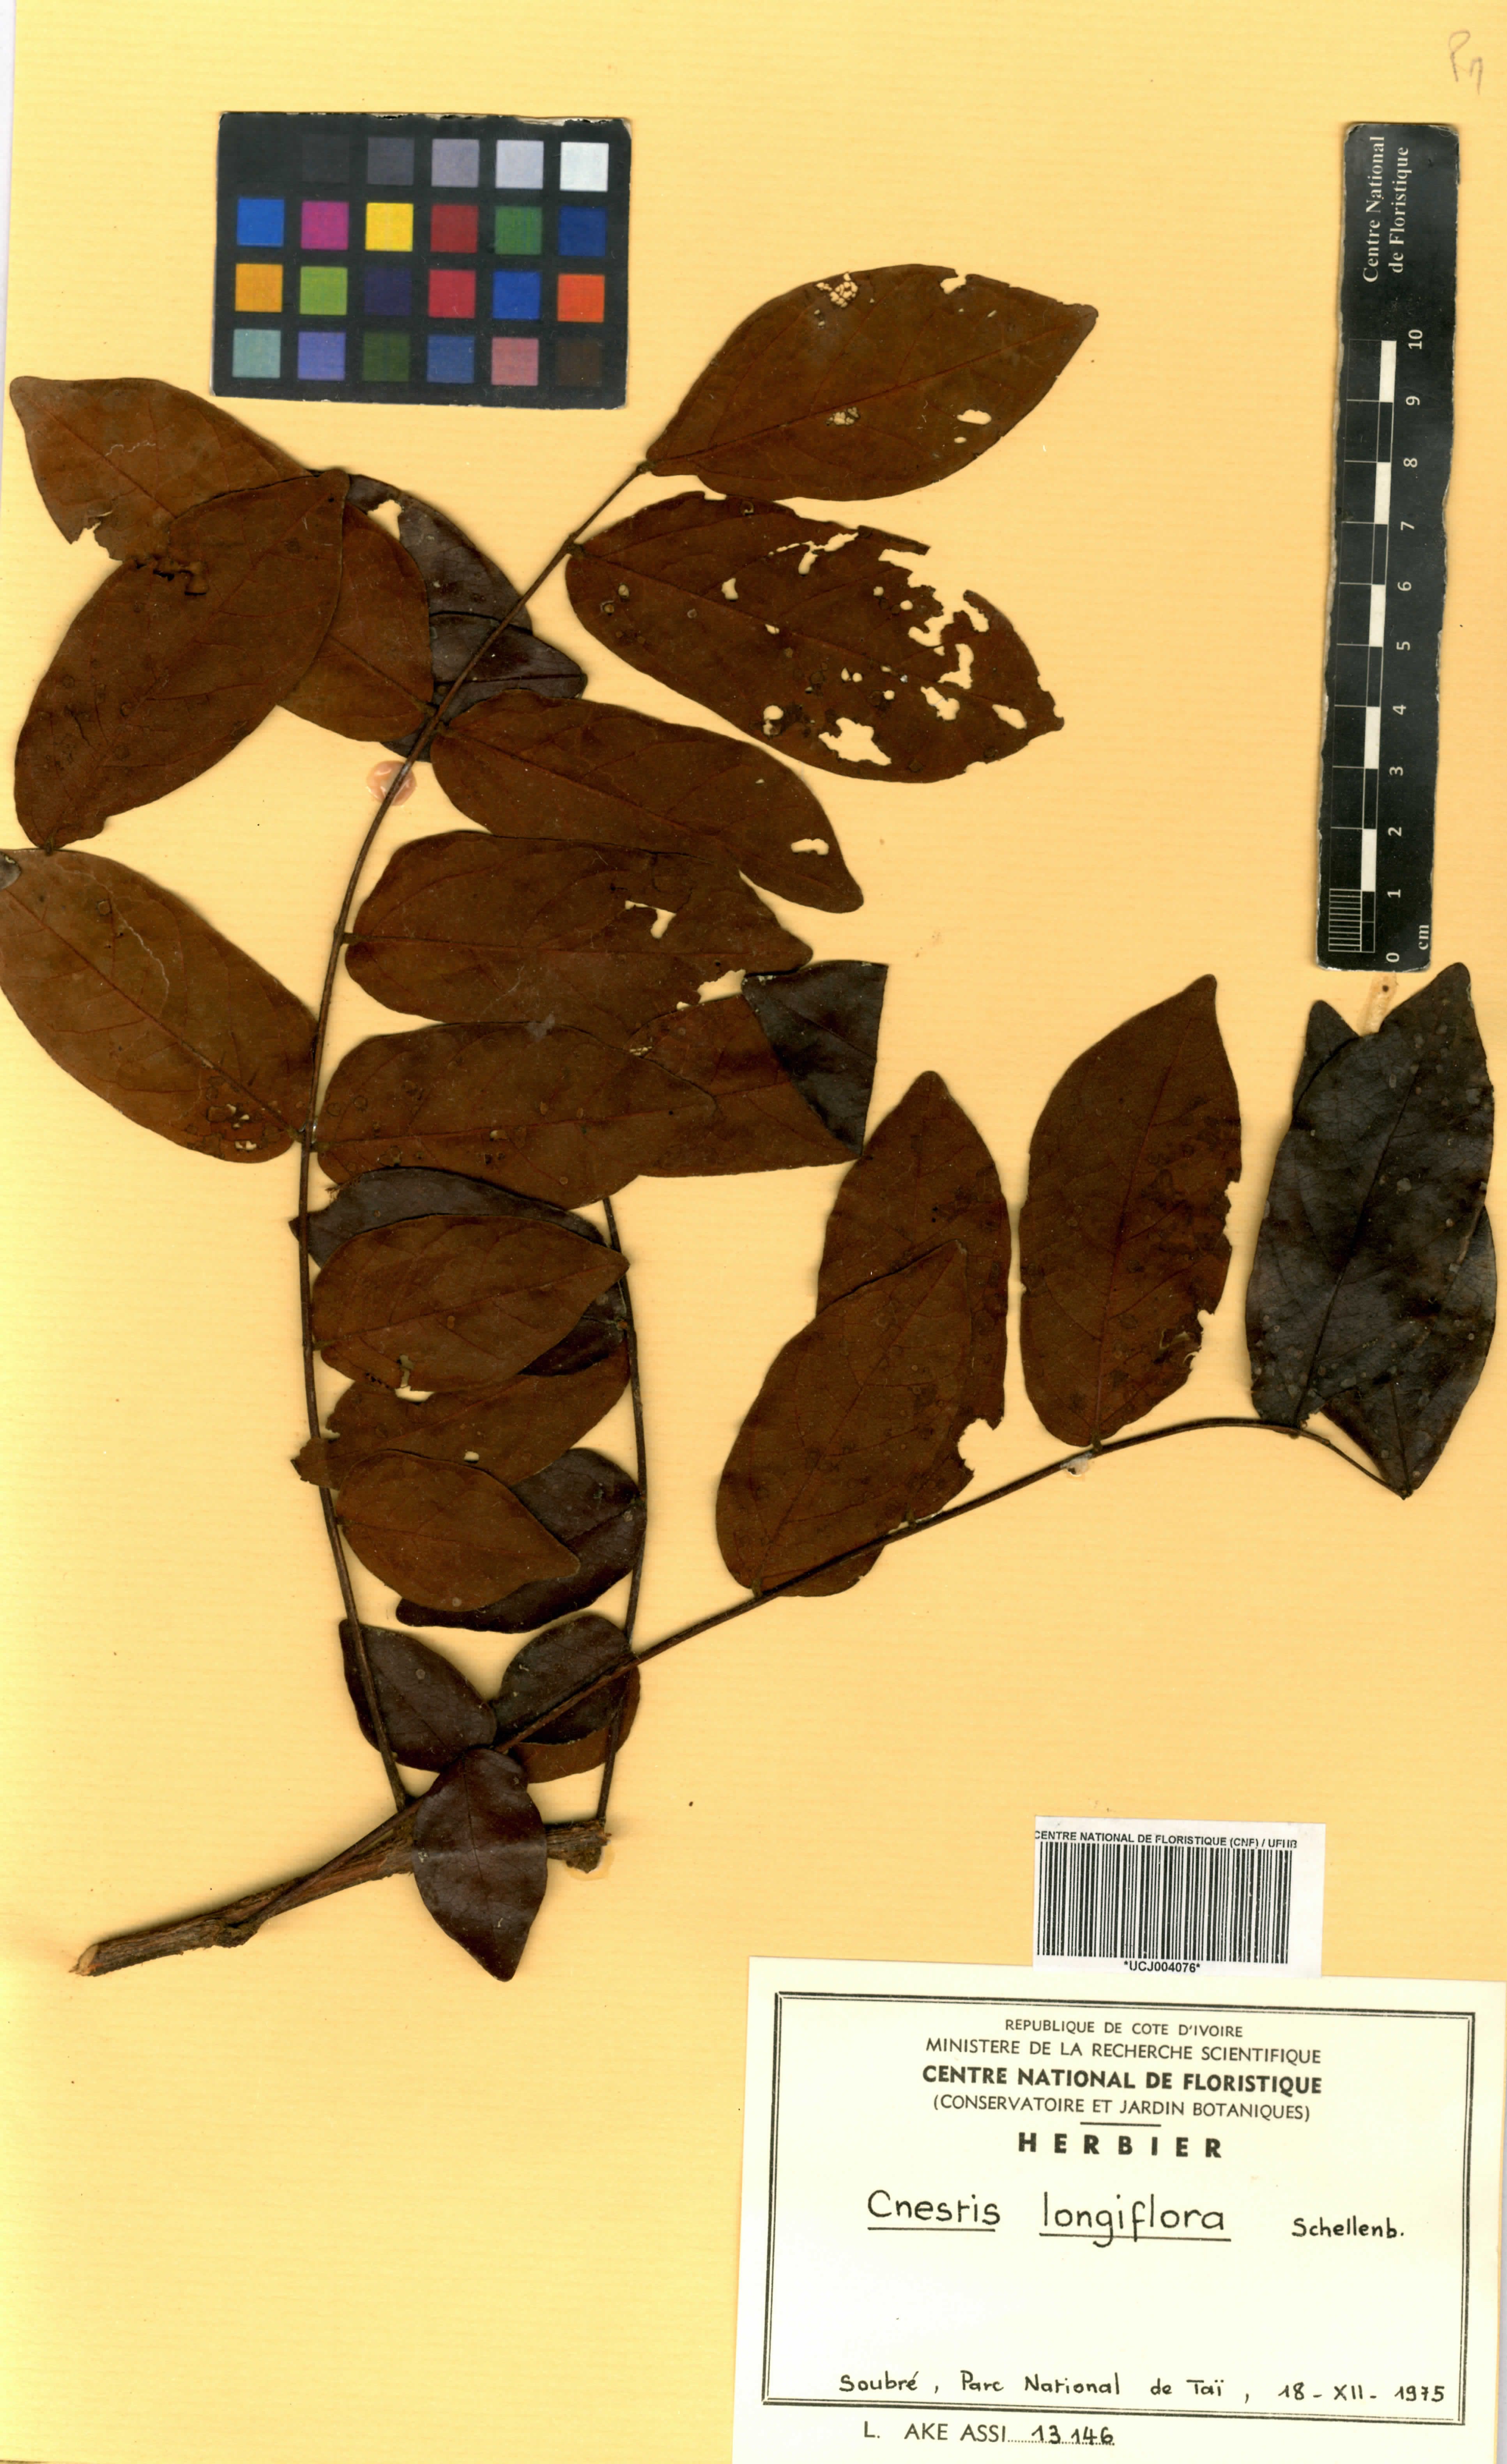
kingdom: Plantae
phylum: Tracheophyta
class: Magnoliopsida
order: Oxalidales
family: Connaraceae
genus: Cnestis
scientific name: Cnestis corniculata
